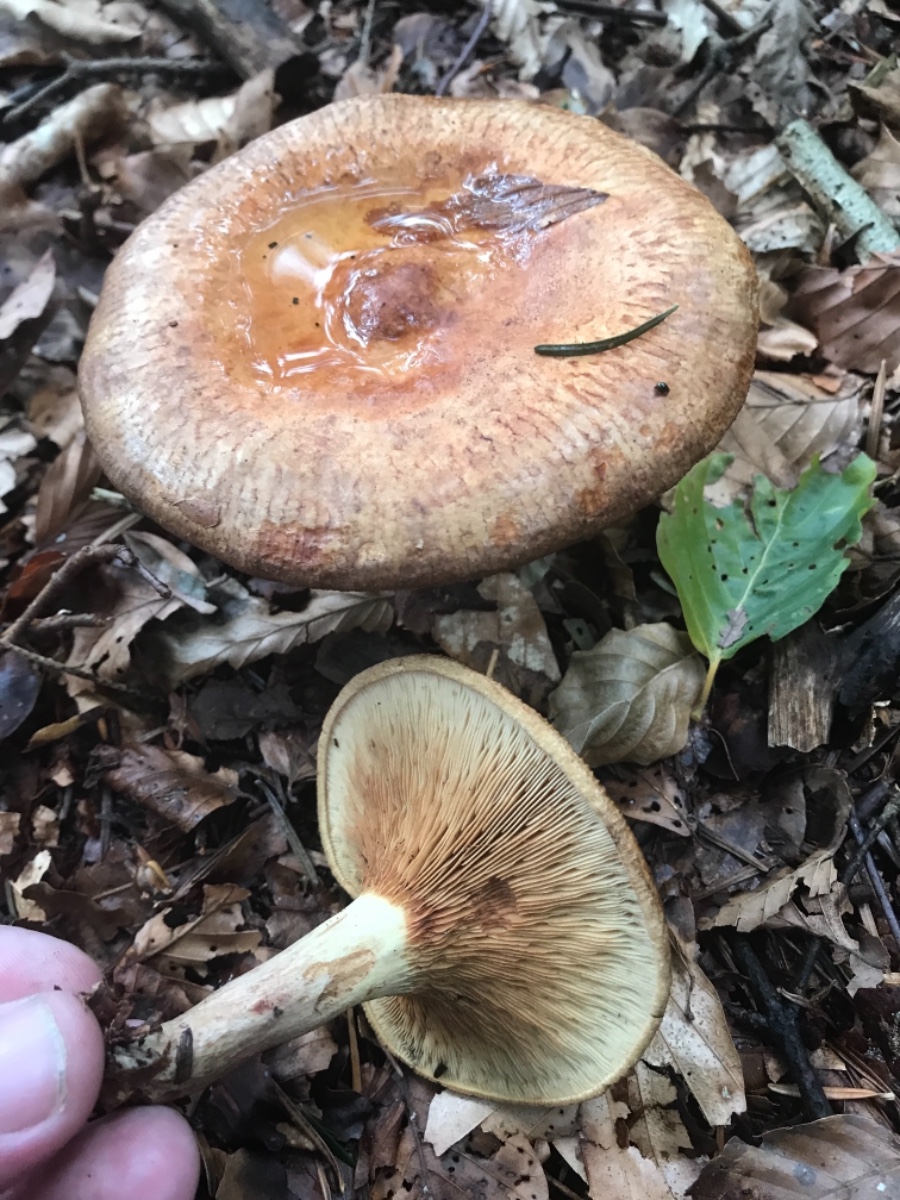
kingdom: Fungi
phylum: Basidiomycota
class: Agaricomycetes
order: Boletales
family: Paxillaceae
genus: Paxillus
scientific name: Paxillus involutus
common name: almindelig netbladhat
